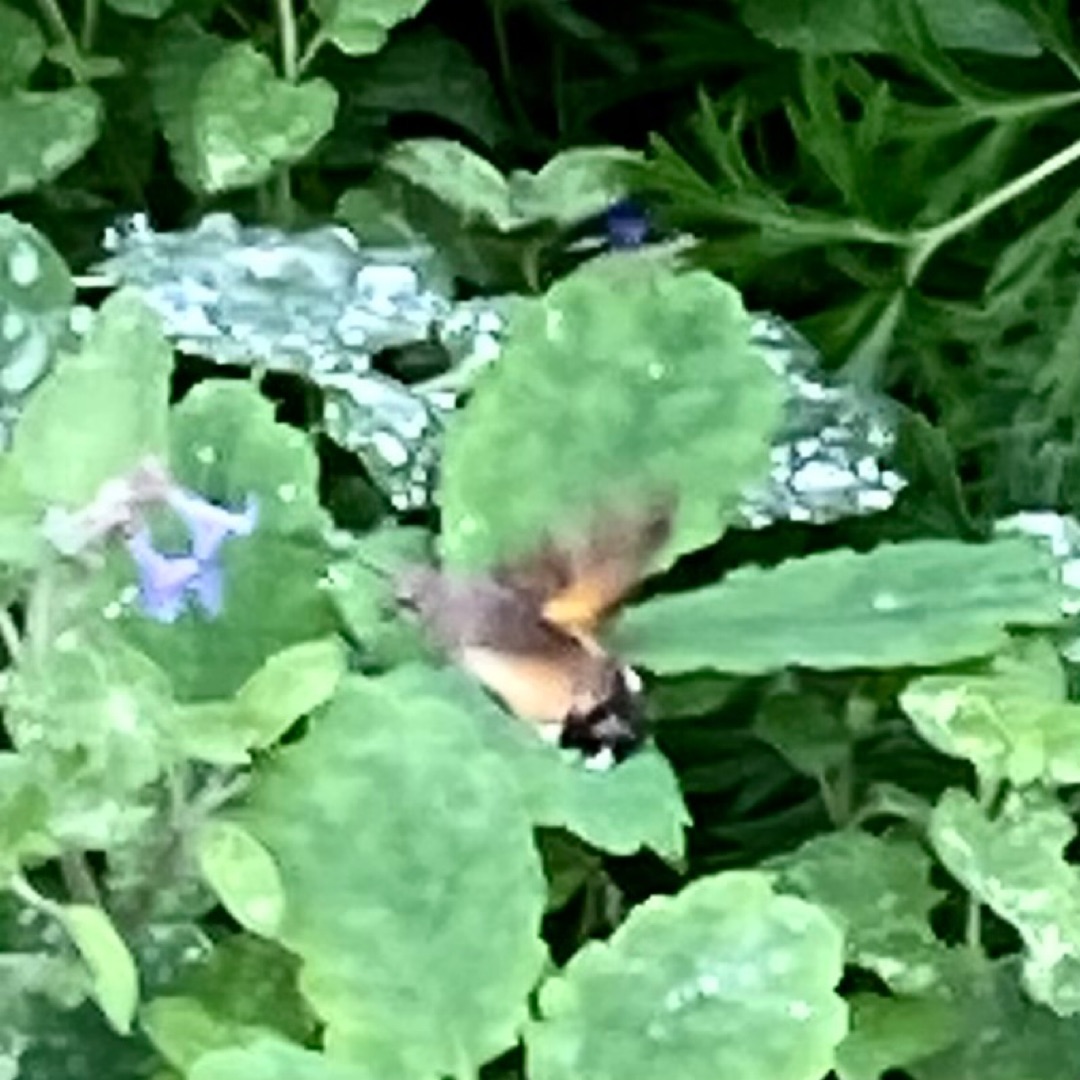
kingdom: Animalia
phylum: Arthropoda
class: Insecta
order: Lepidoptera
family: Sphingidae
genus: Macroglossum
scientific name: Macroglossum stellatarum
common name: Duehale
